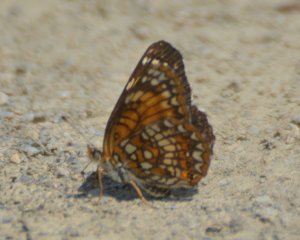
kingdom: Animalia
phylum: Arthropoda
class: Insecta
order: Lepidoptera
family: Nymphalidae
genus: Chlosyne
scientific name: Chlosyne harrisii
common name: Harris's Checkerspot
